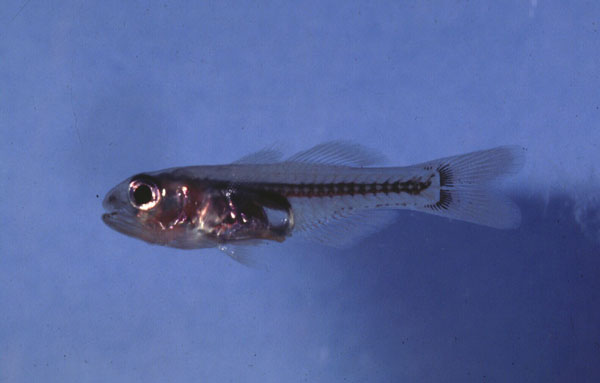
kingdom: Animalia
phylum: Chordata
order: Perciformes
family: Apogonidae
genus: Gymnapogon
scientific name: Gymnapogon japonicus
